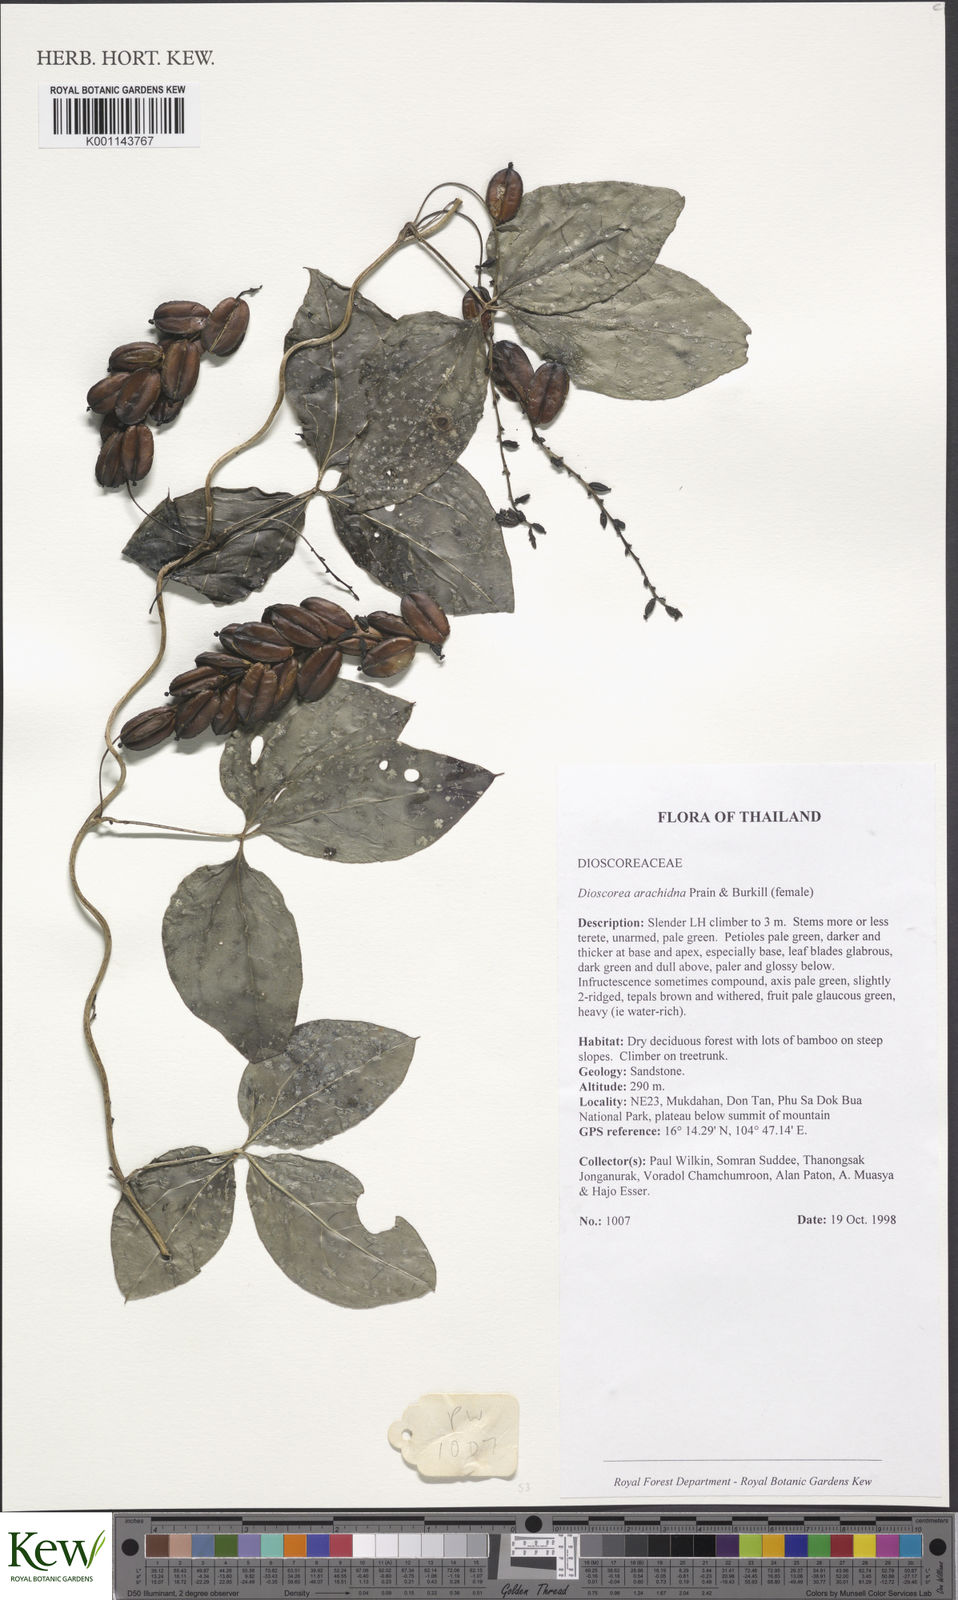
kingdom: Plantae
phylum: Tracheophyta
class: Liliopsida
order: Dioscoreales
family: Dioscoreaceae
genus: Dioscorea
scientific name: Dioscorea arachidna
